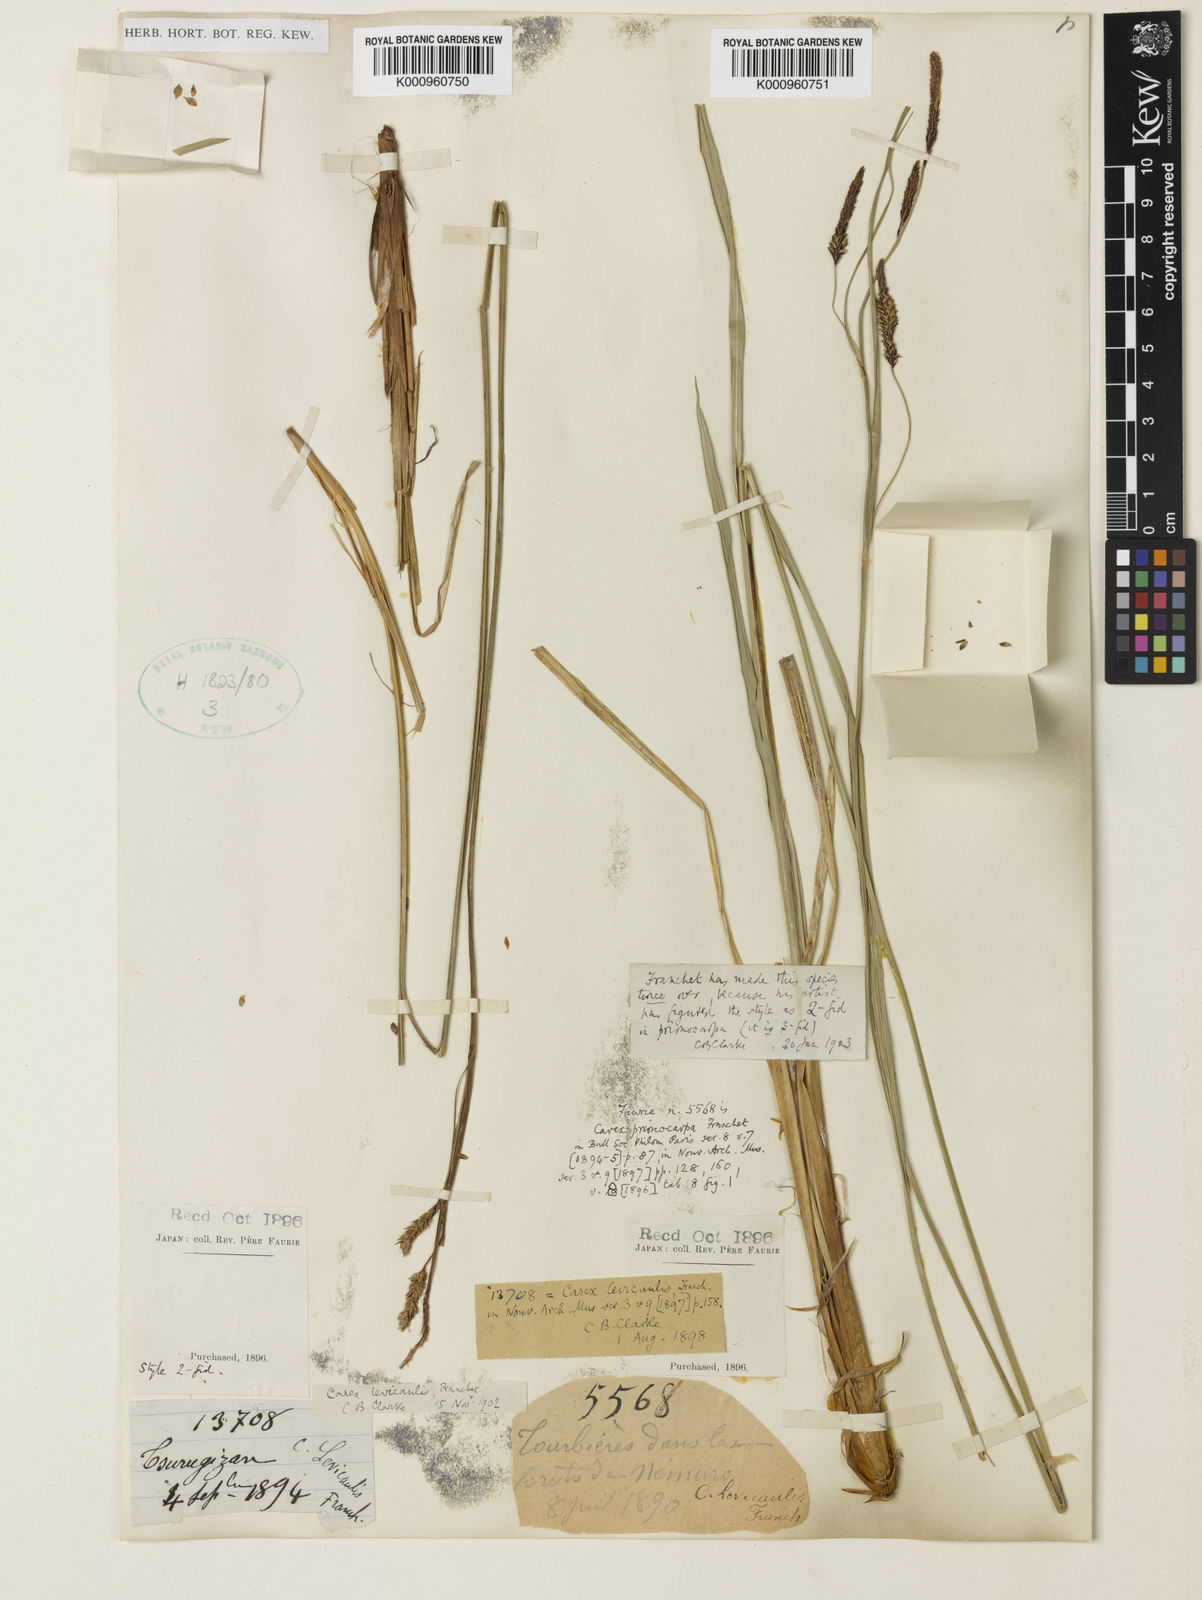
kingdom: Plantae
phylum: Tracheophyta
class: Liliopsida
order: Poales
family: Cyperaceae
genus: Carex
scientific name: Carex middendorffii
